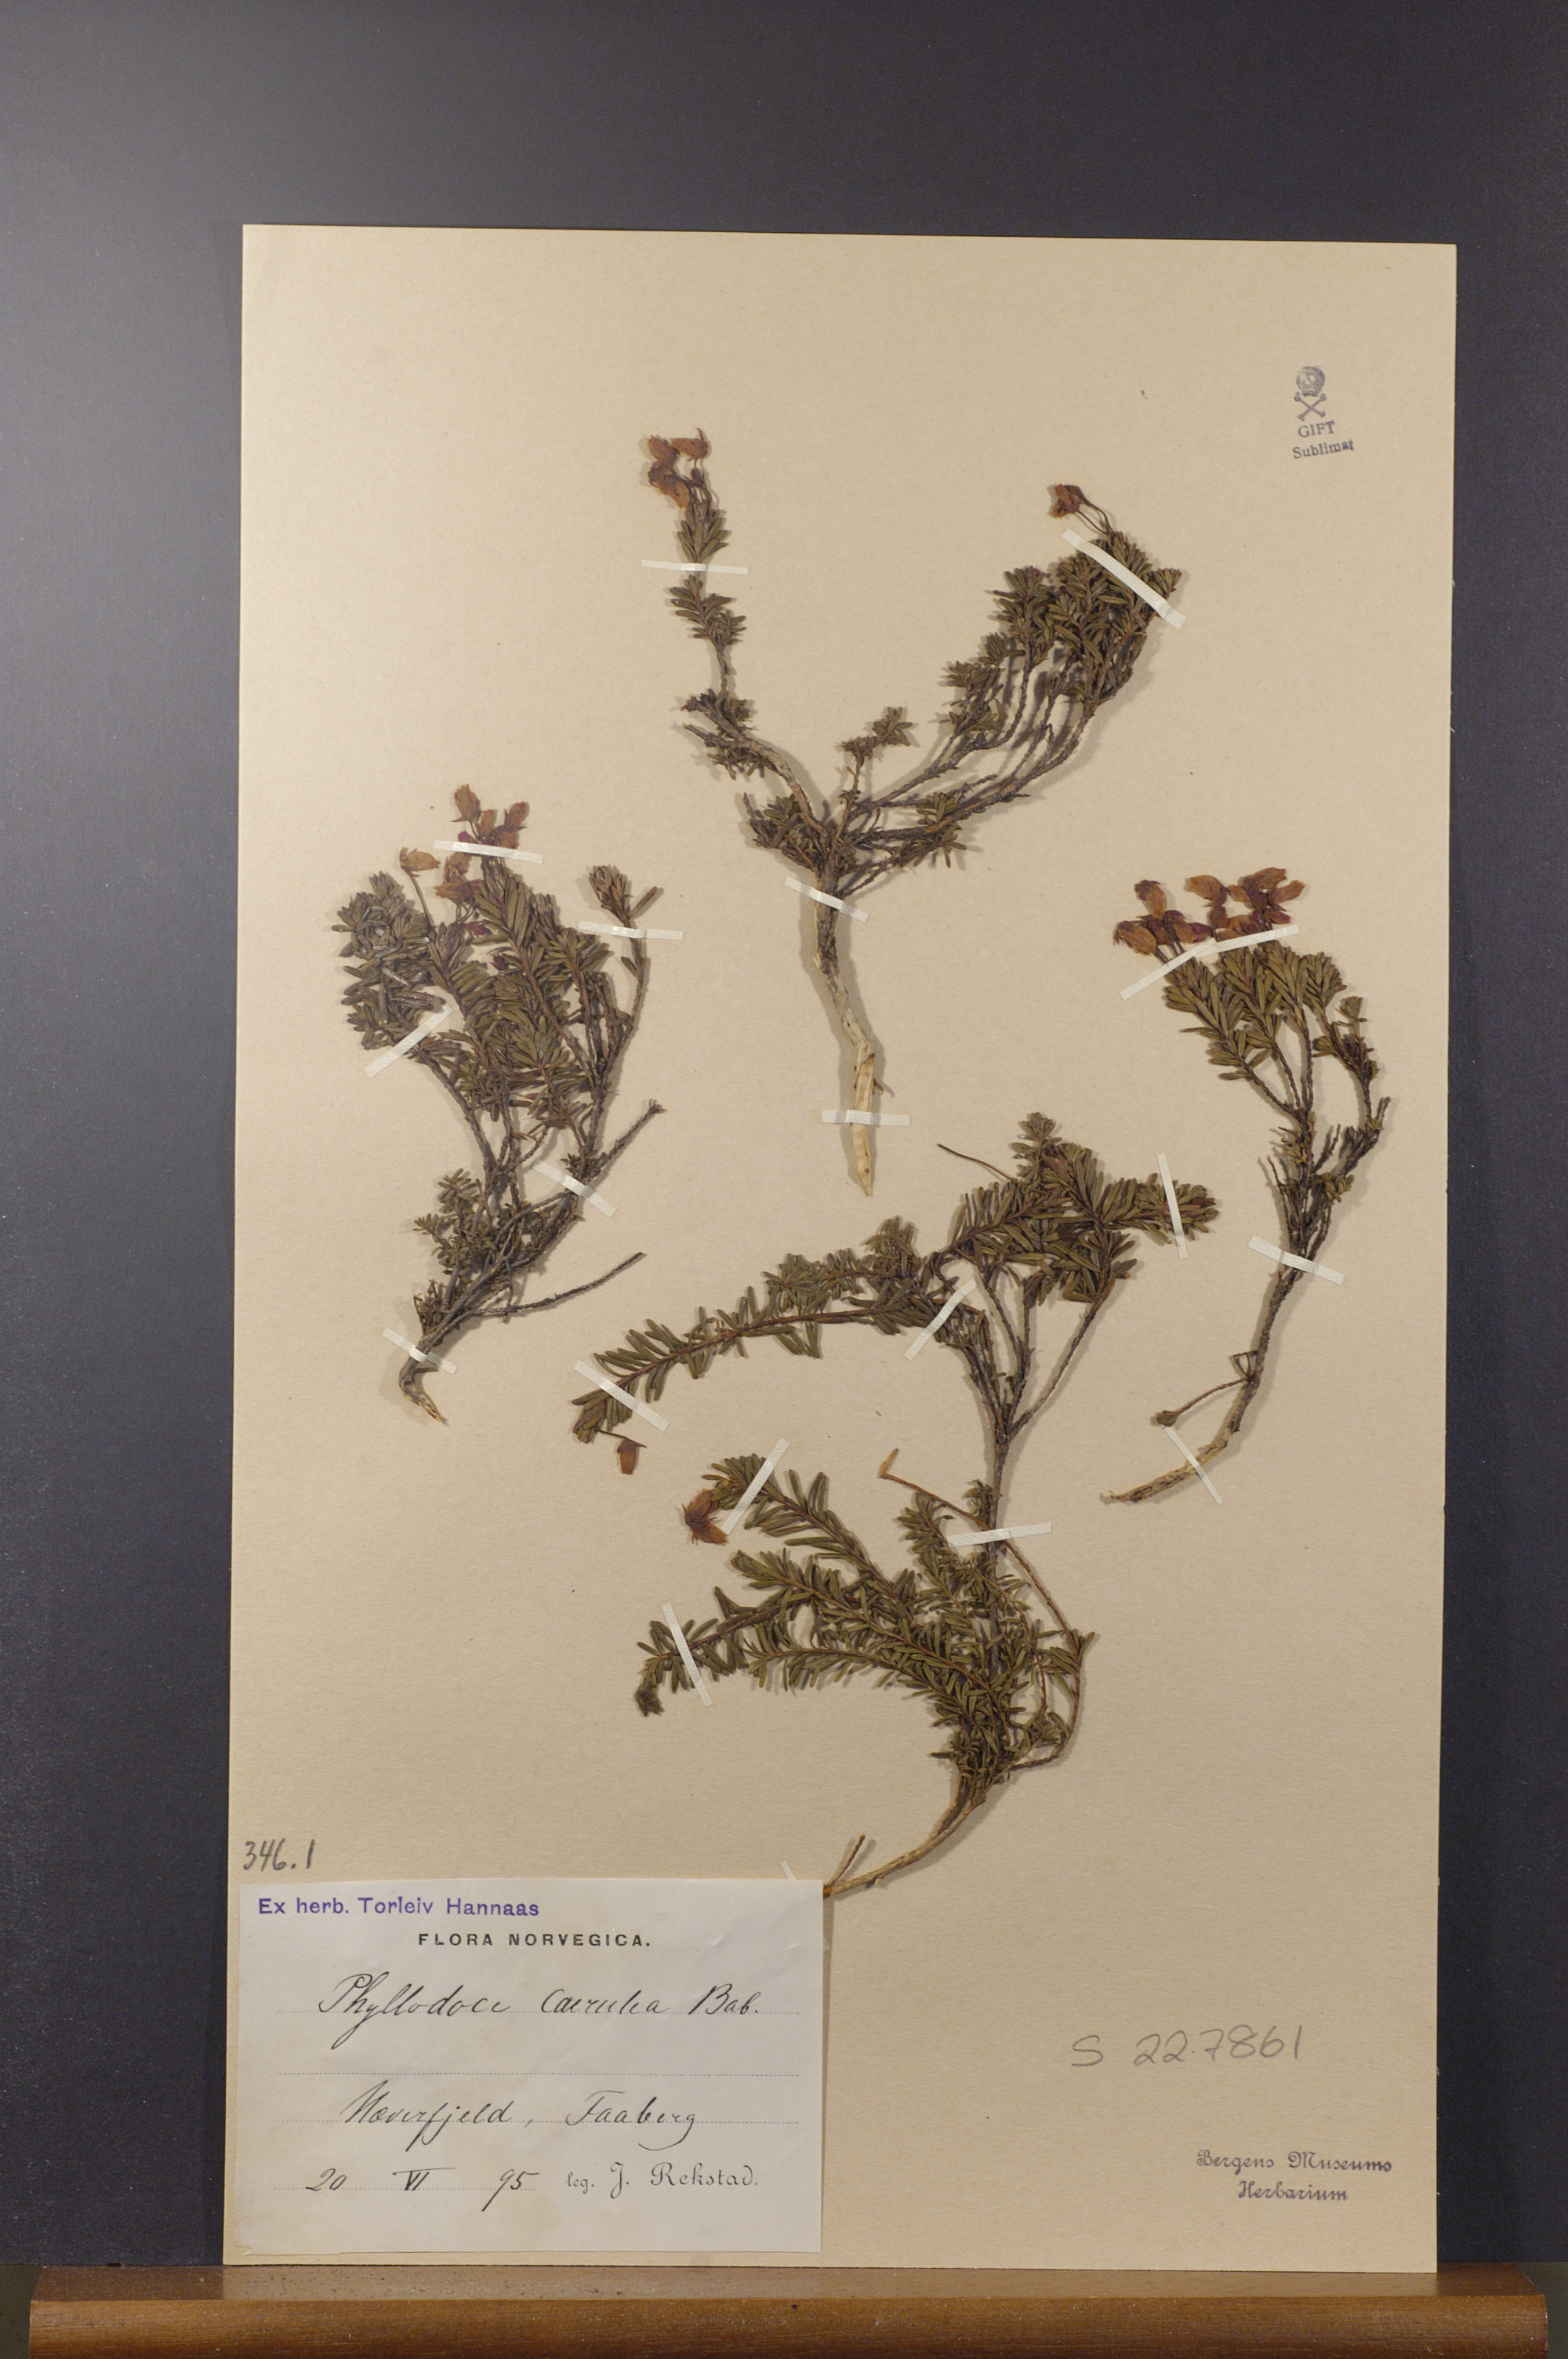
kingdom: Plantae
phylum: Tracheophyta
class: Magnoliopsida
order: Ericales
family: Ericaceae
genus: Phyllodoce
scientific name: Phyllodoce caerulea
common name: Blue heath
